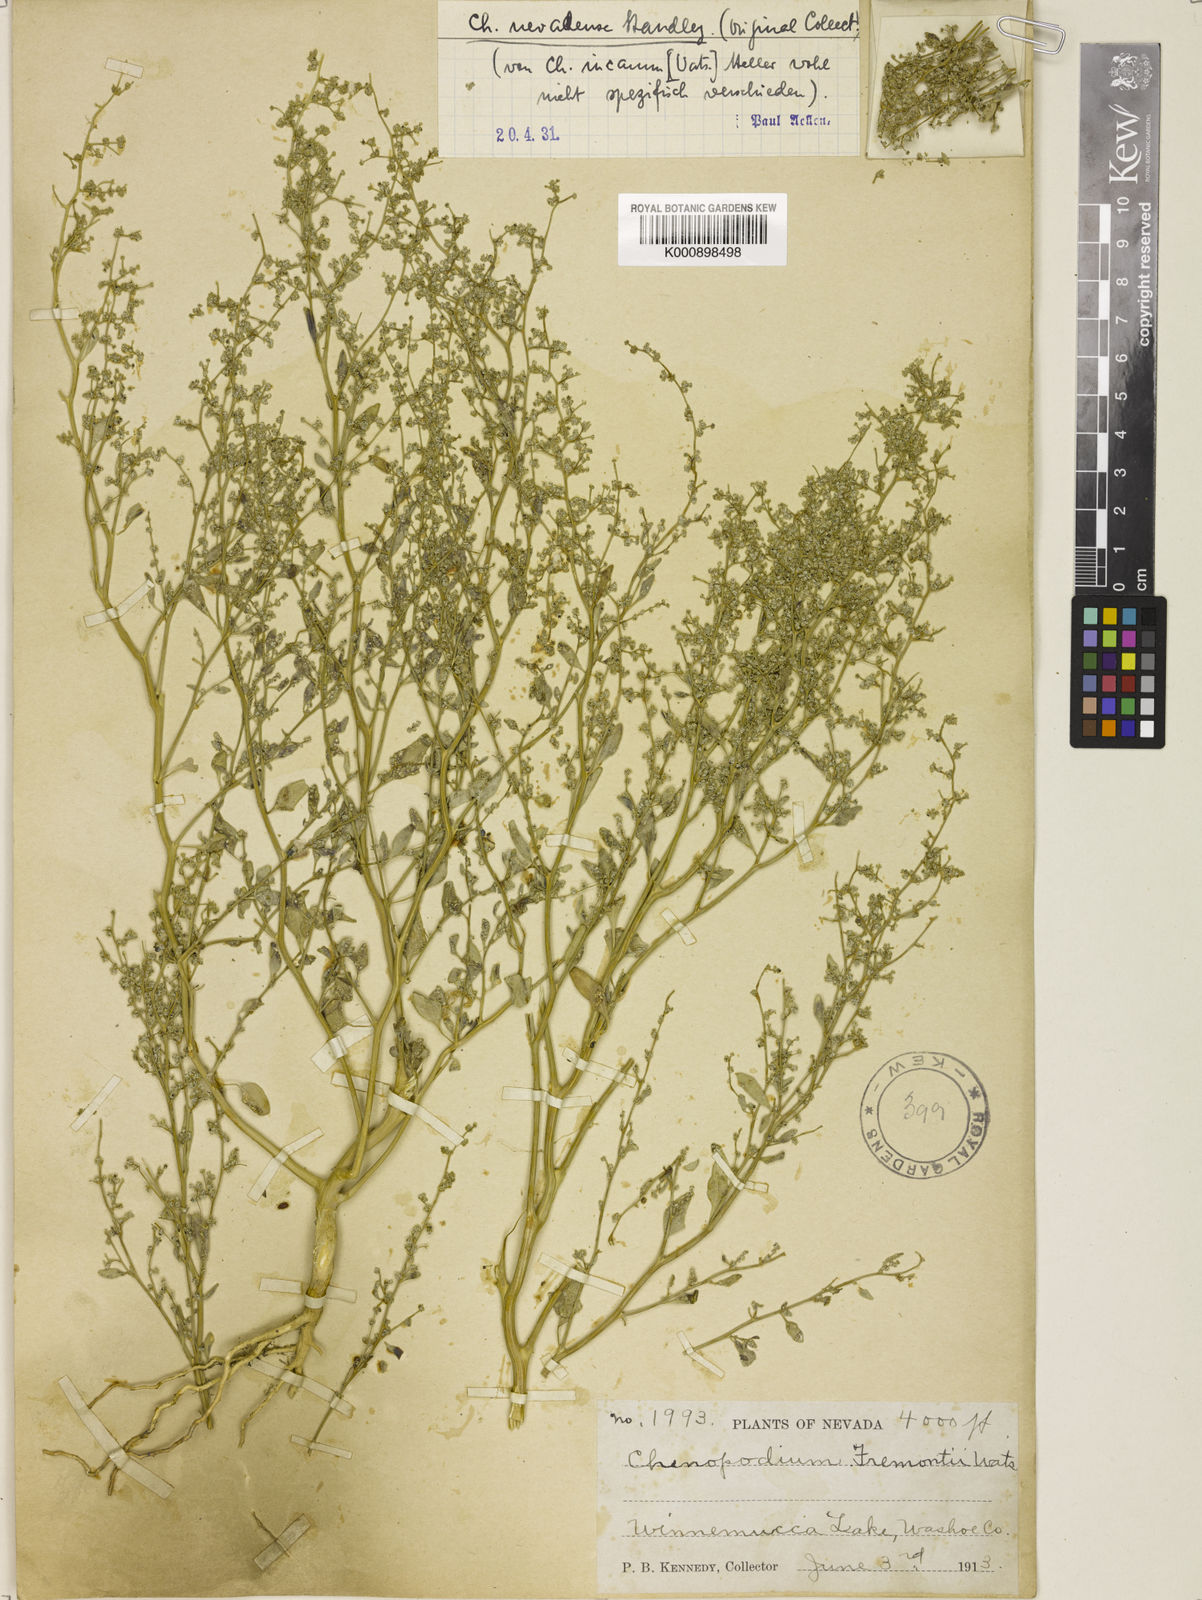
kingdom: Plantae
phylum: Tracheophyta
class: Magnoliopsida
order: Caryophyllales
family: Amaranthaceae
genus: Chenopodium
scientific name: Chenopodium nevadense
